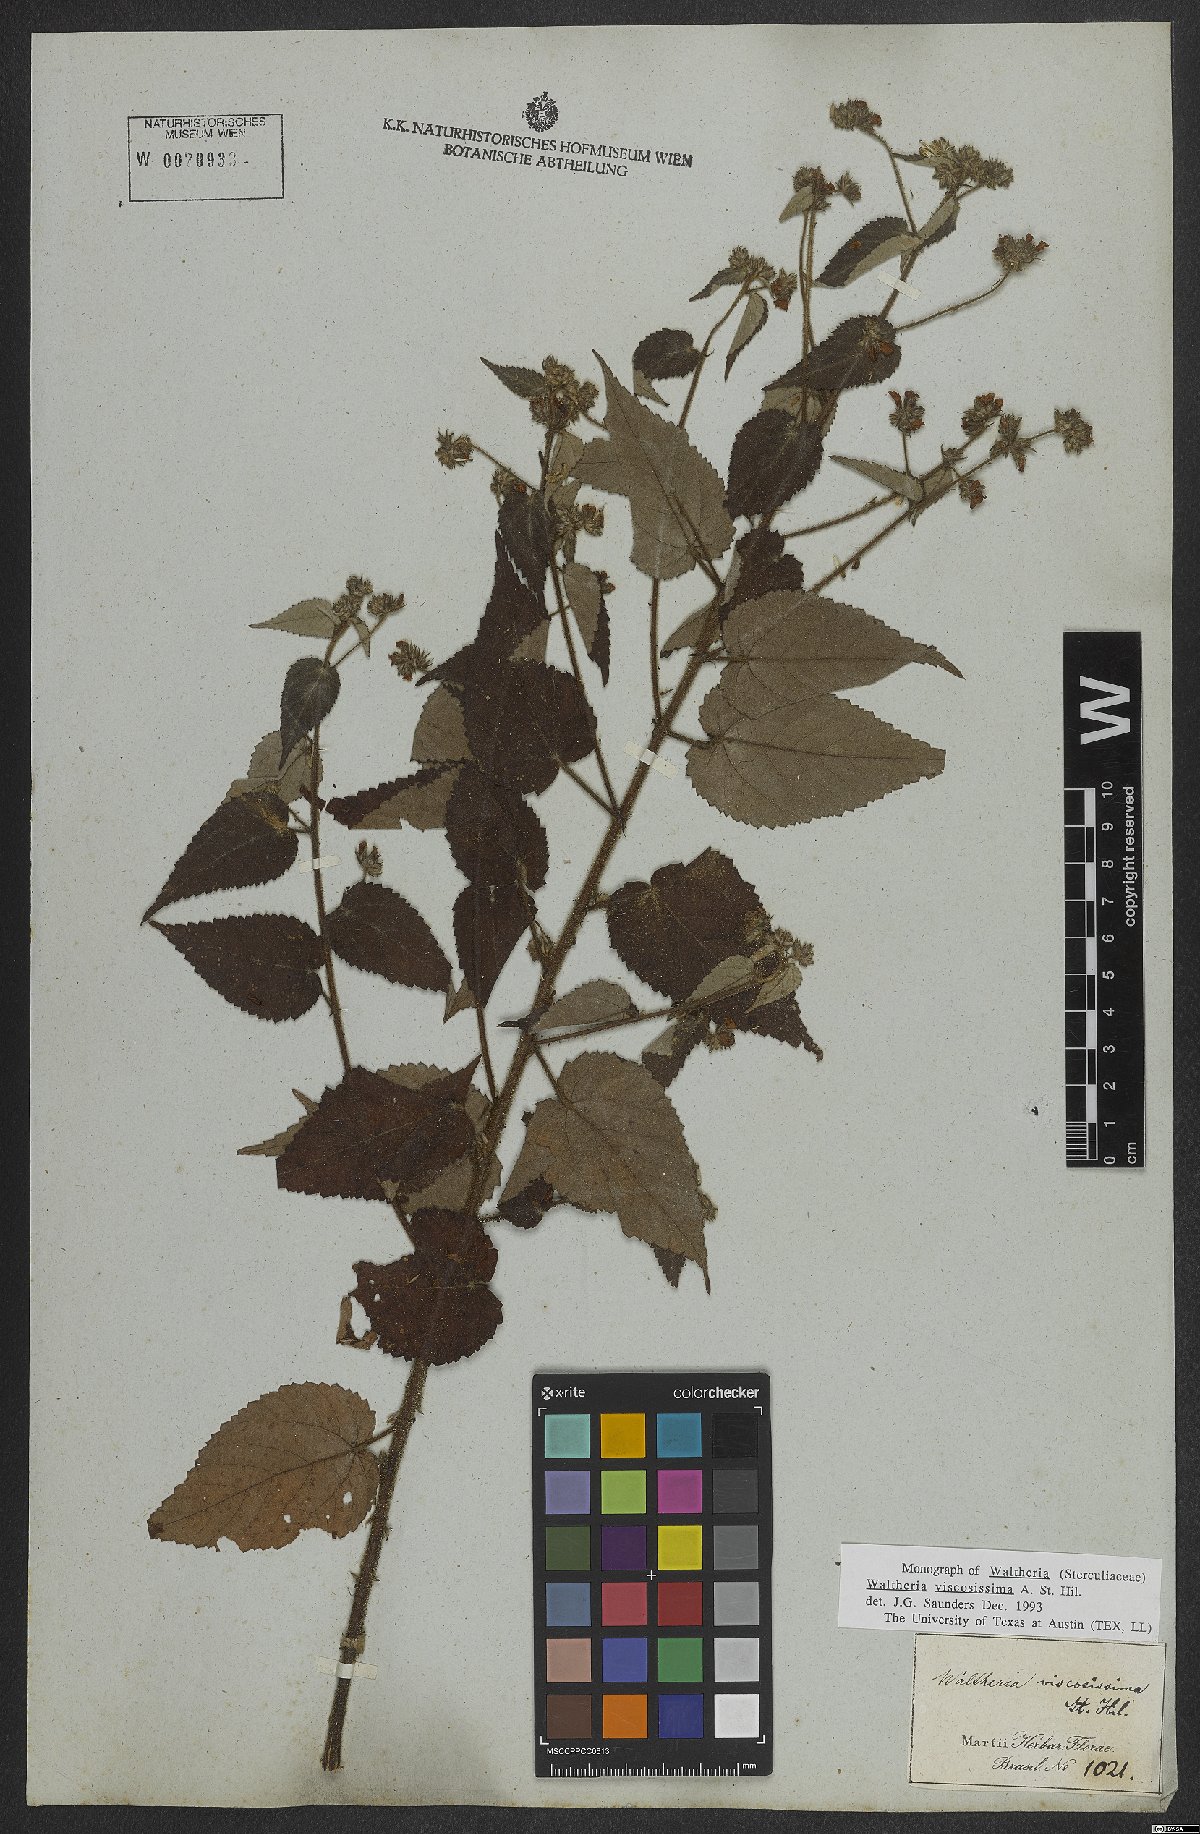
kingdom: Plantae
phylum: Tracheophyta
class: Magnoliopsida
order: Malvales
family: Malvaceae
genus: Waltheria
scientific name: Waltheria viscosissima
